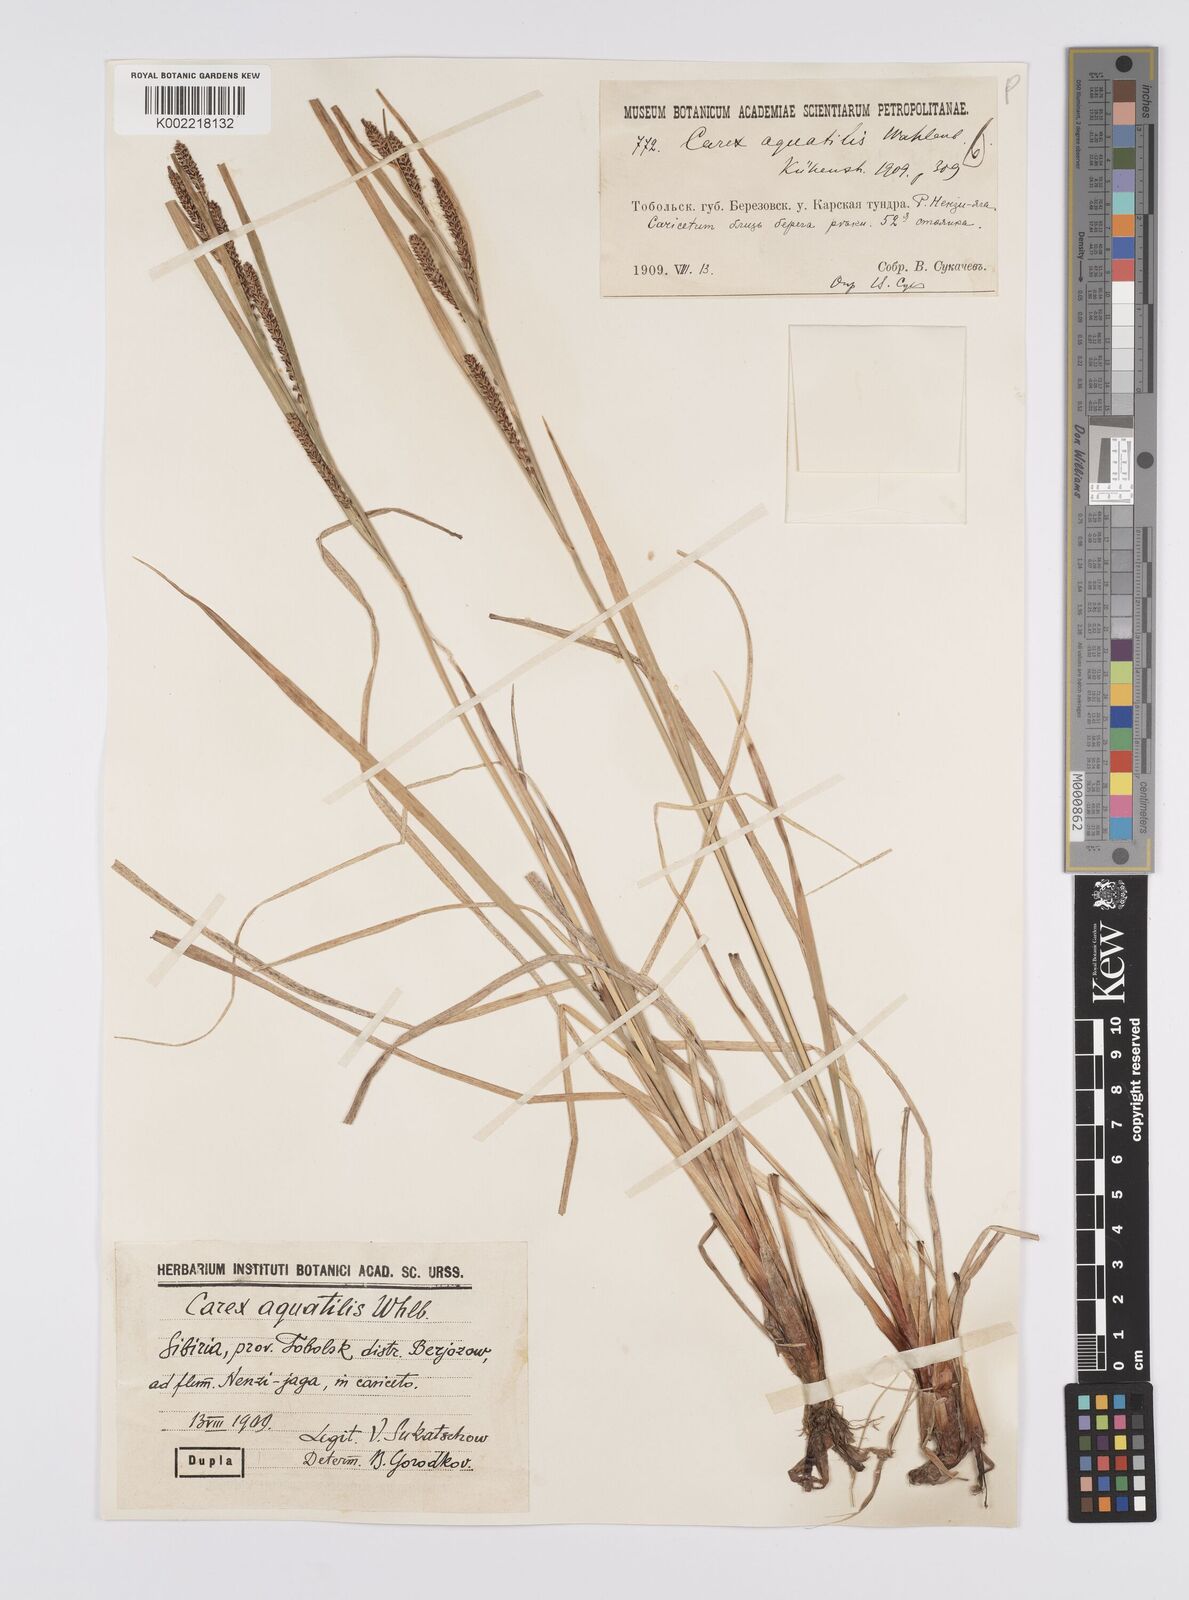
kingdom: Plantae
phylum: Tracheophyta
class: Liliopsida
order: Poales
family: Cyperaceae
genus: Carex
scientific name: Carex aquatilis
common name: Water sedge
